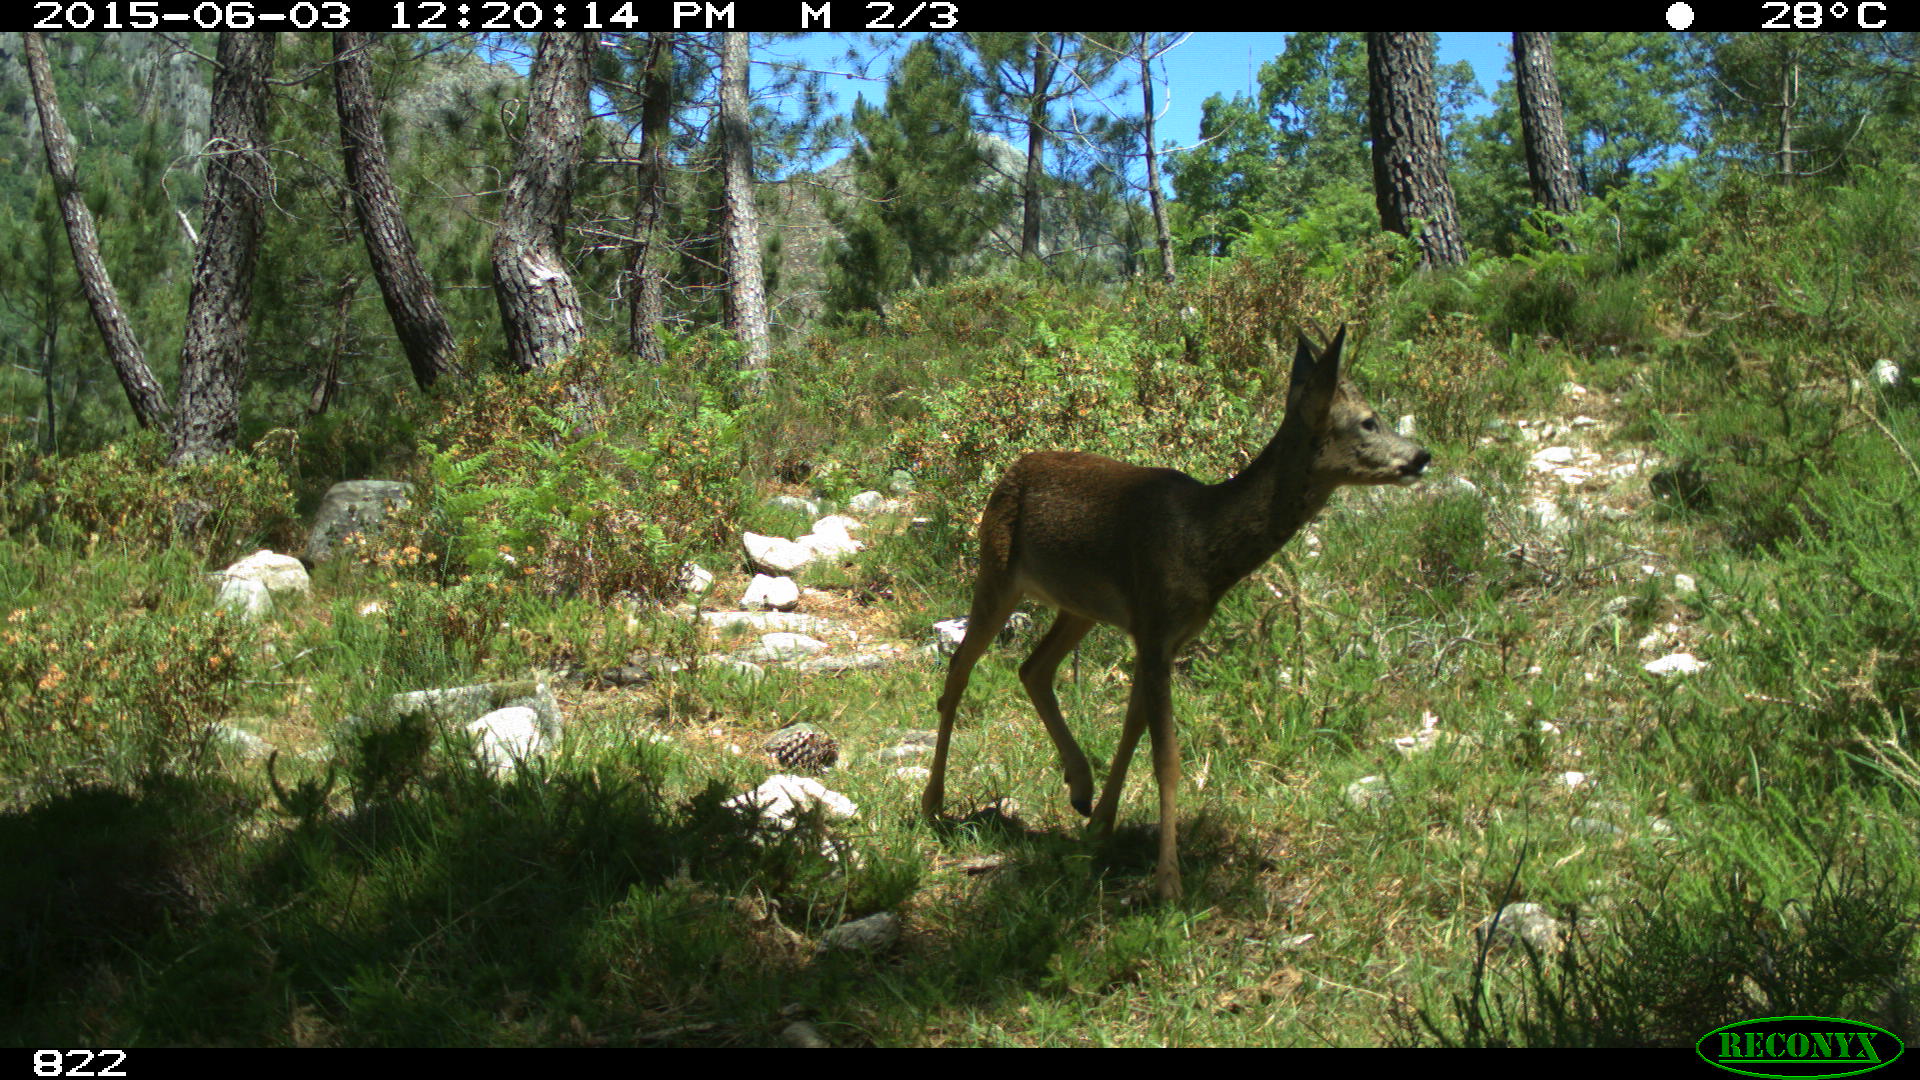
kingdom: Animalia
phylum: Chordata
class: Mammalia
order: Artiodactyla
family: Cervidae
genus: Capreolus
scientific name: Capreolus capreolus
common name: Western roe deer
